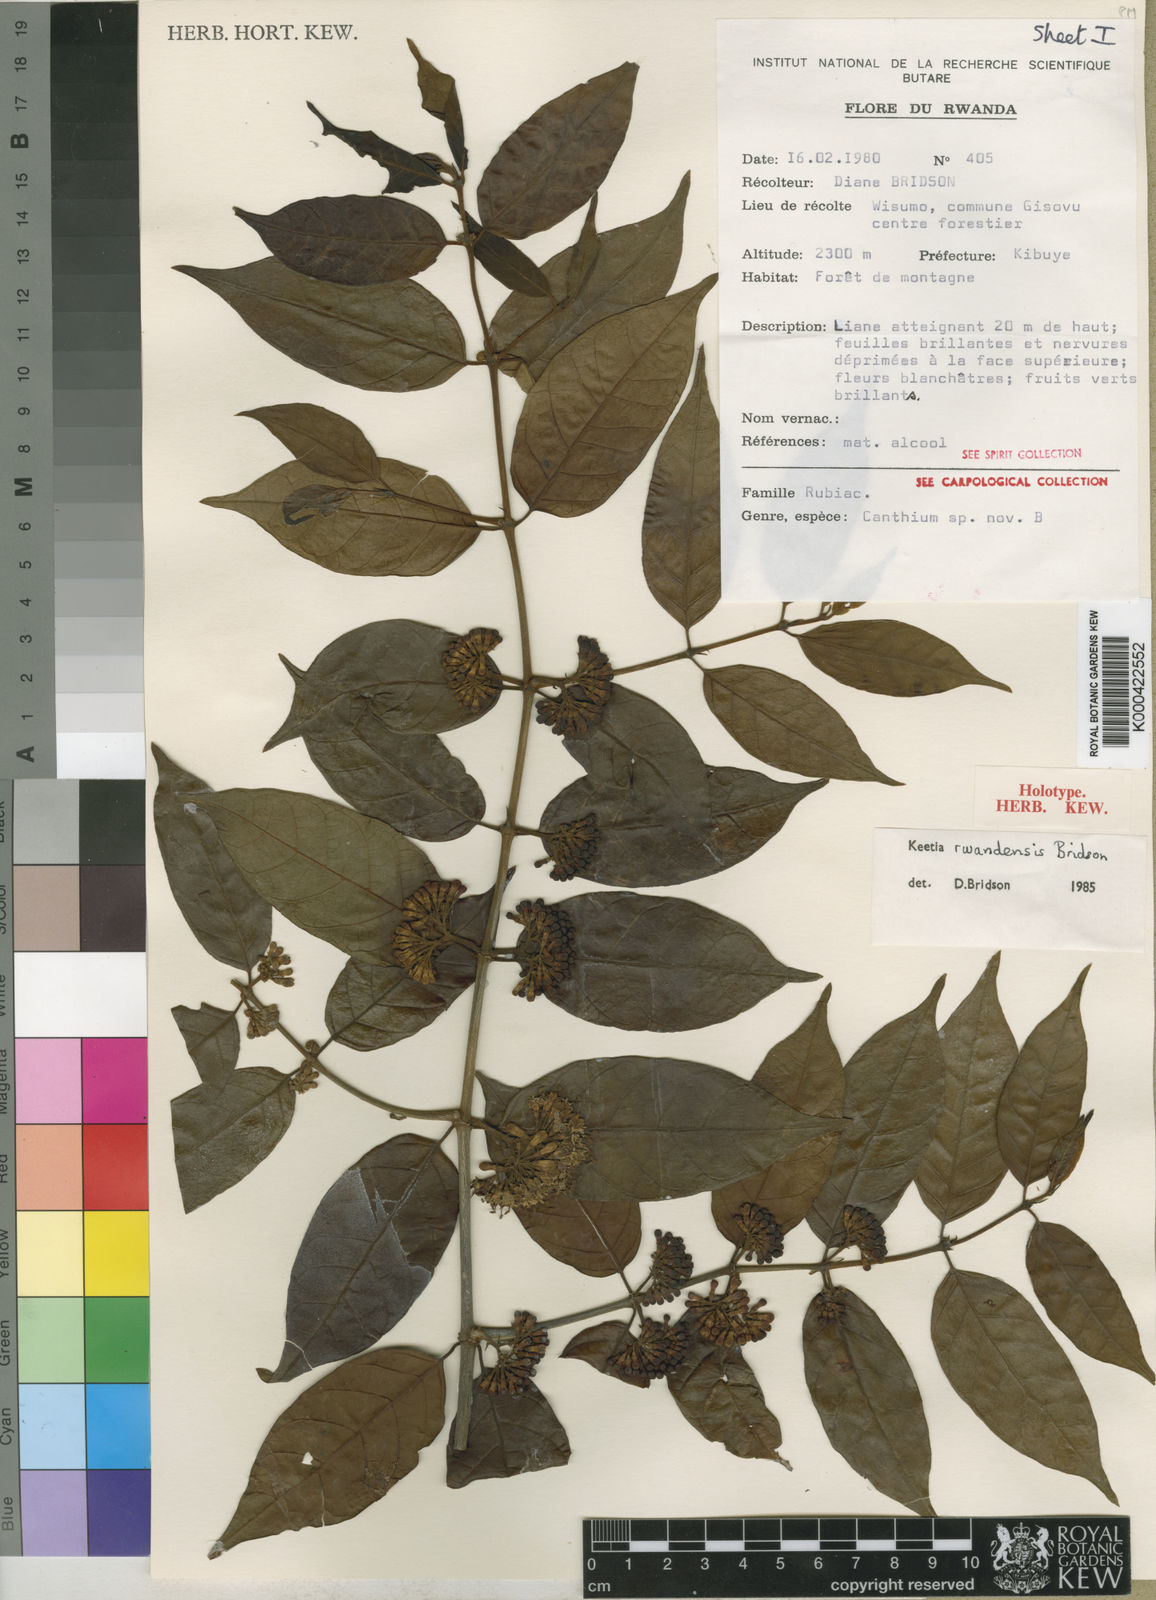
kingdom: Plantae
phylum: Tracheophyta
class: Magnoliopsida
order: Gentianales
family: Rubiaceae
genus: Keetia
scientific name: Keetia rwandensis
